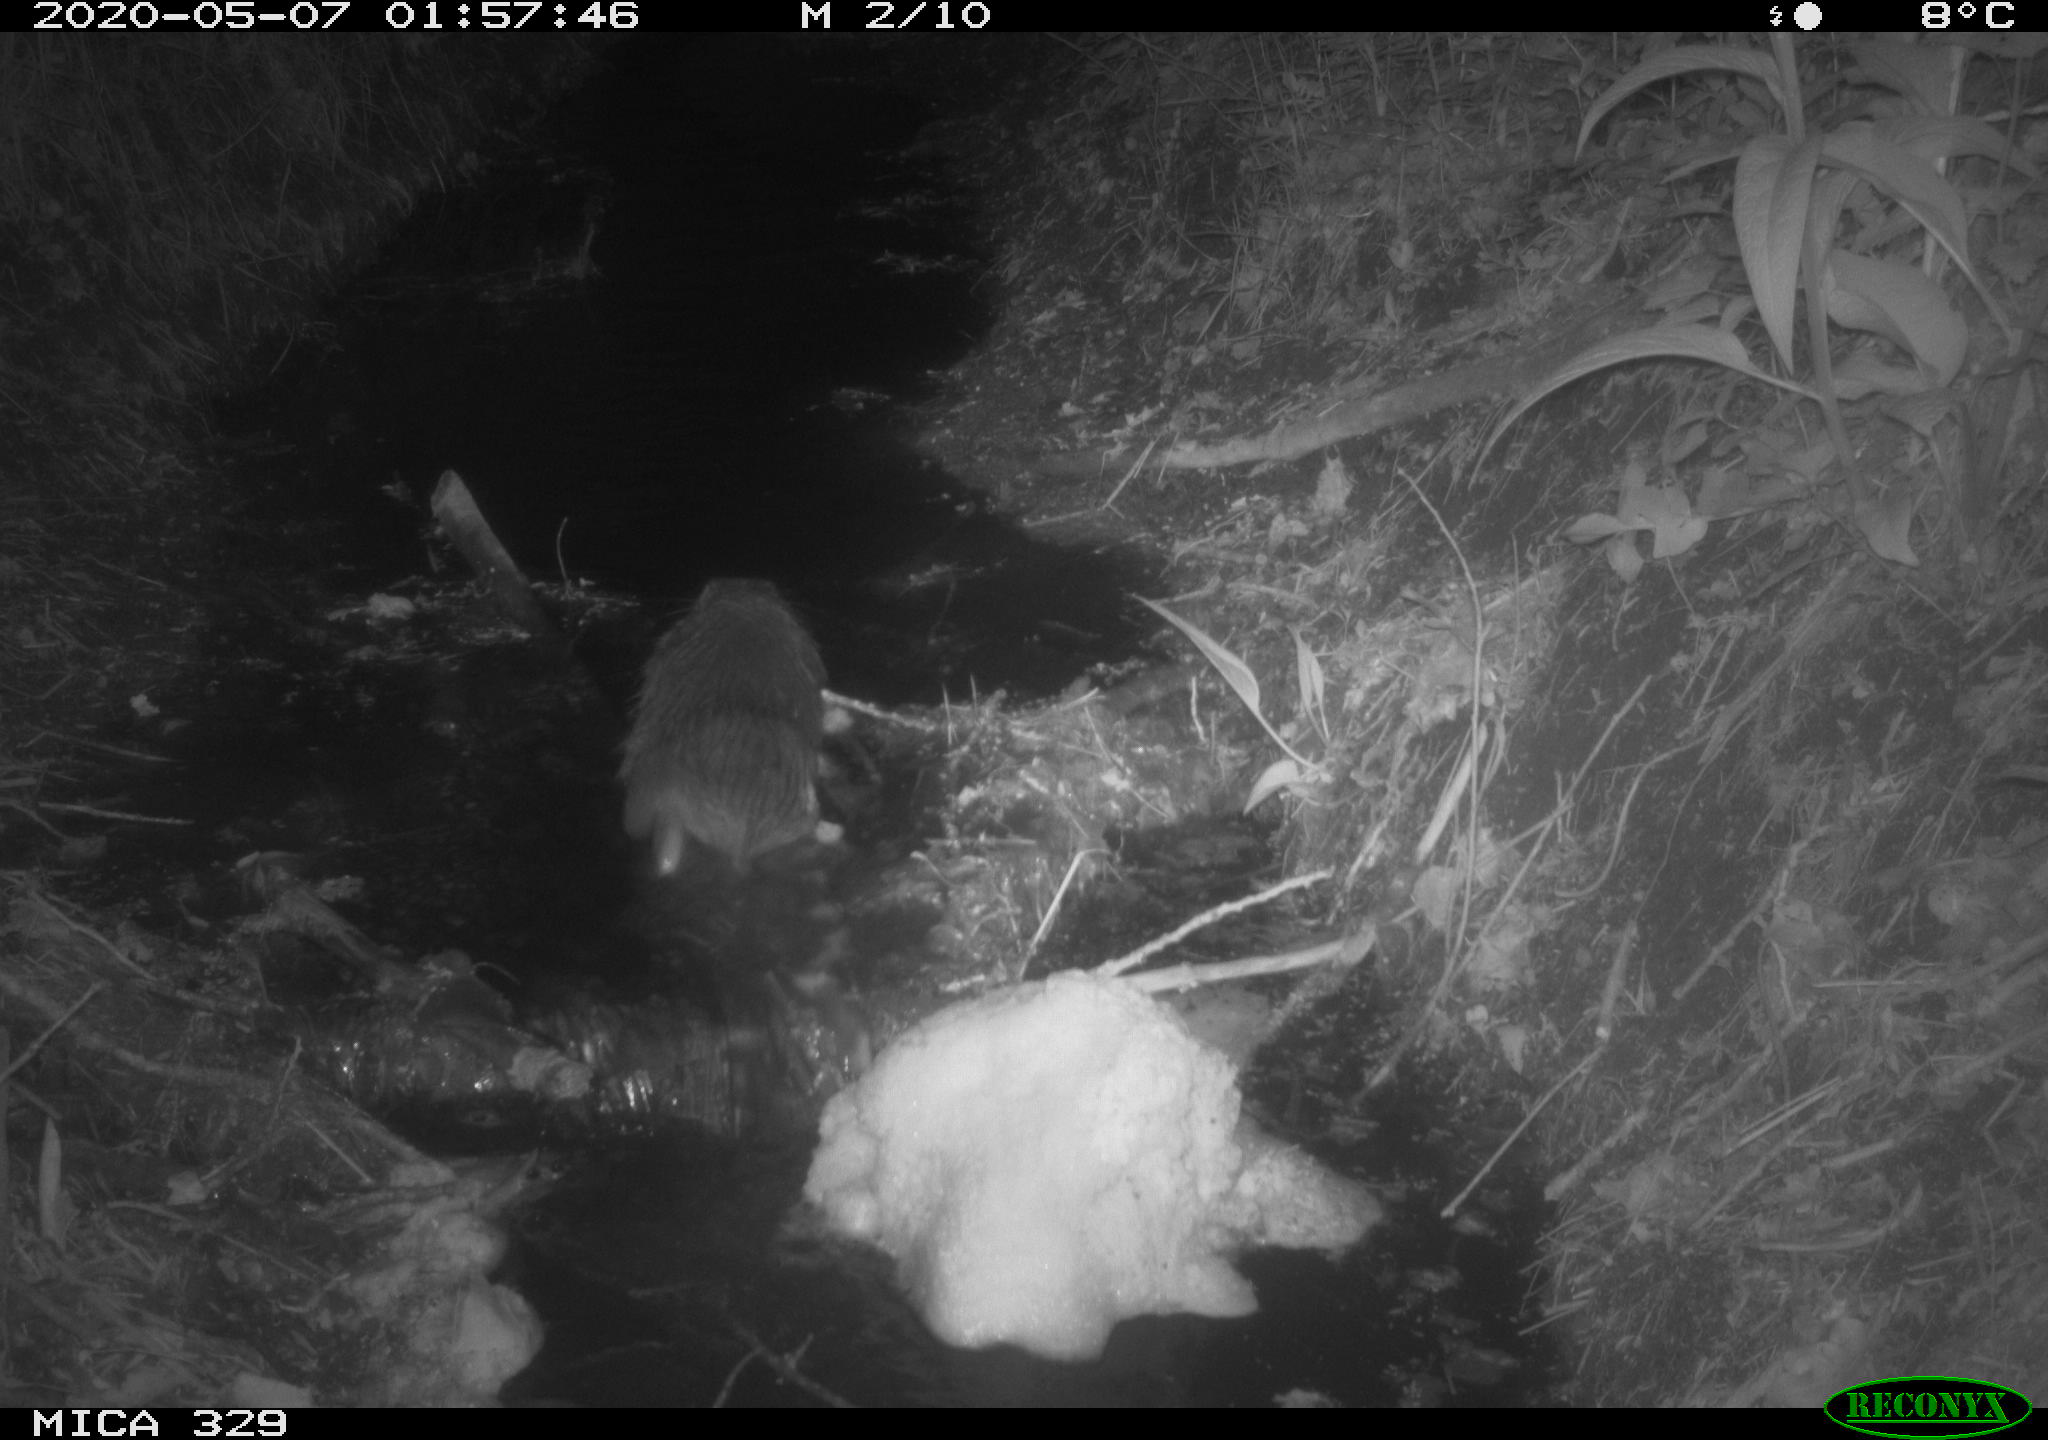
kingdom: Animalia
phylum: Chordata
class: Mammalia
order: Rodentia
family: Myocastoridae
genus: Myocastor
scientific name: Myocastor coypus
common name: Coypu
